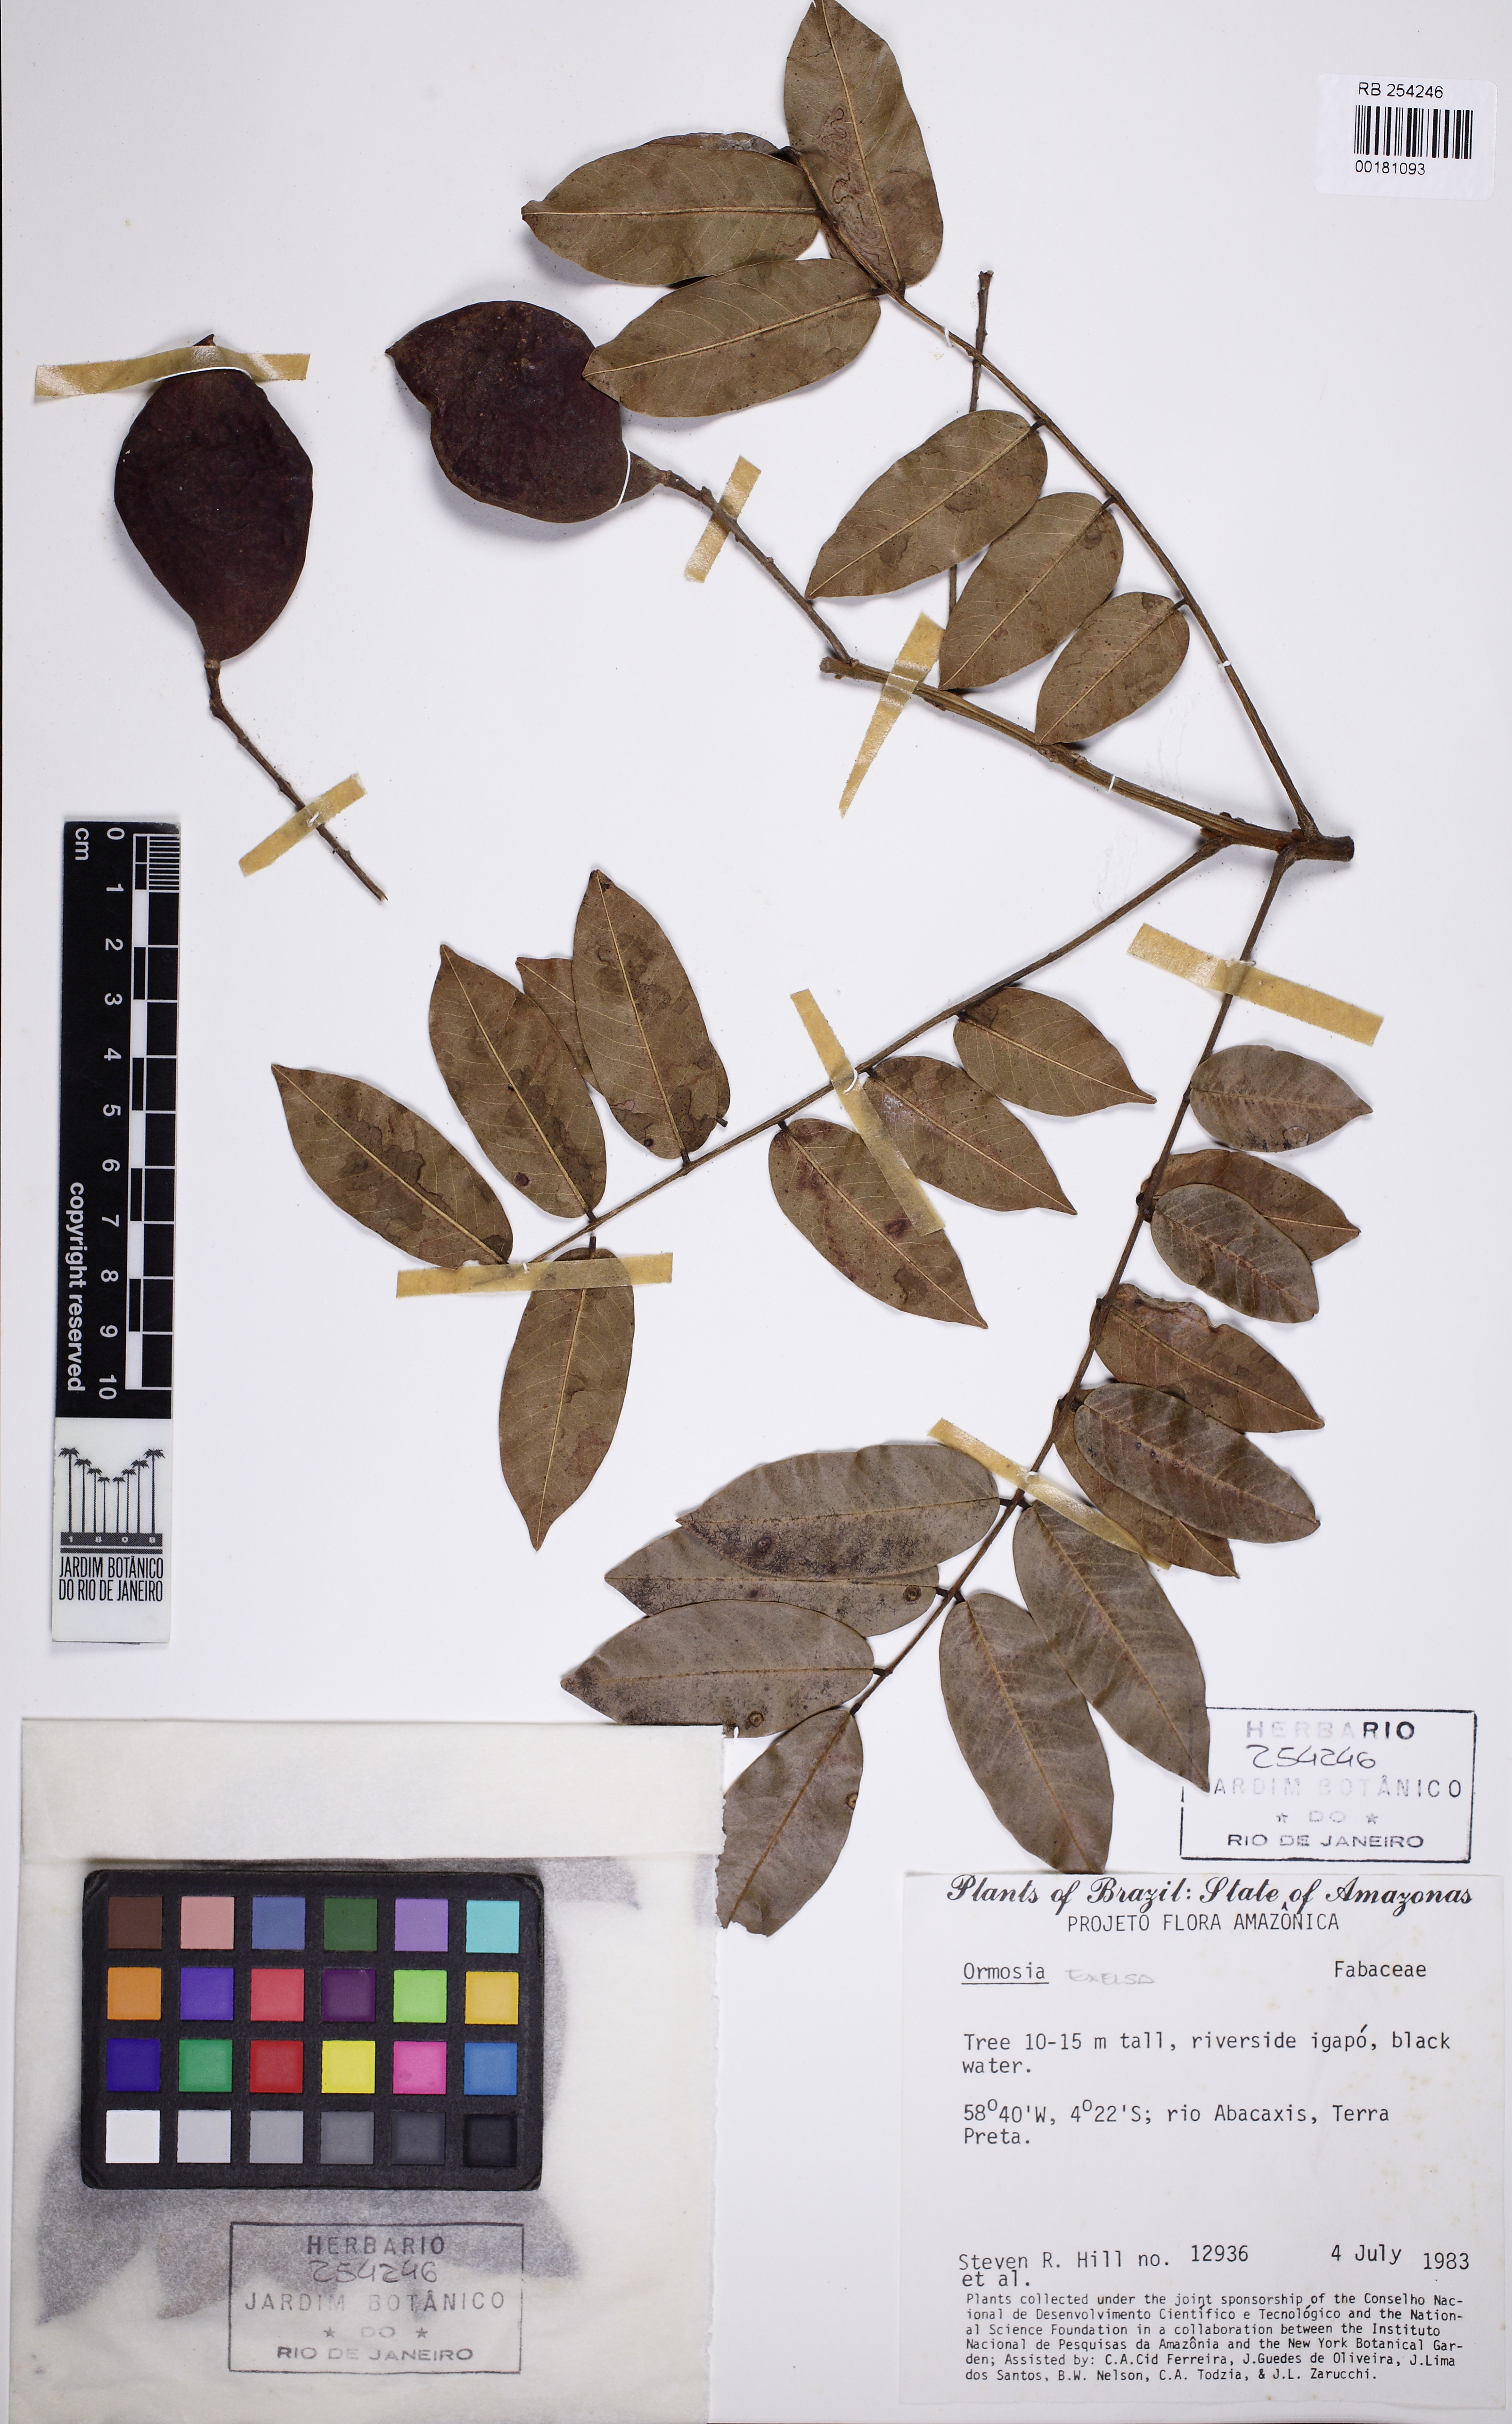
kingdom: Plantae
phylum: Tracheophyta
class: Magnoliopsida
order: Fabales
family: Fabaceae
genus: Ormosia
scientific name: Ormosia
